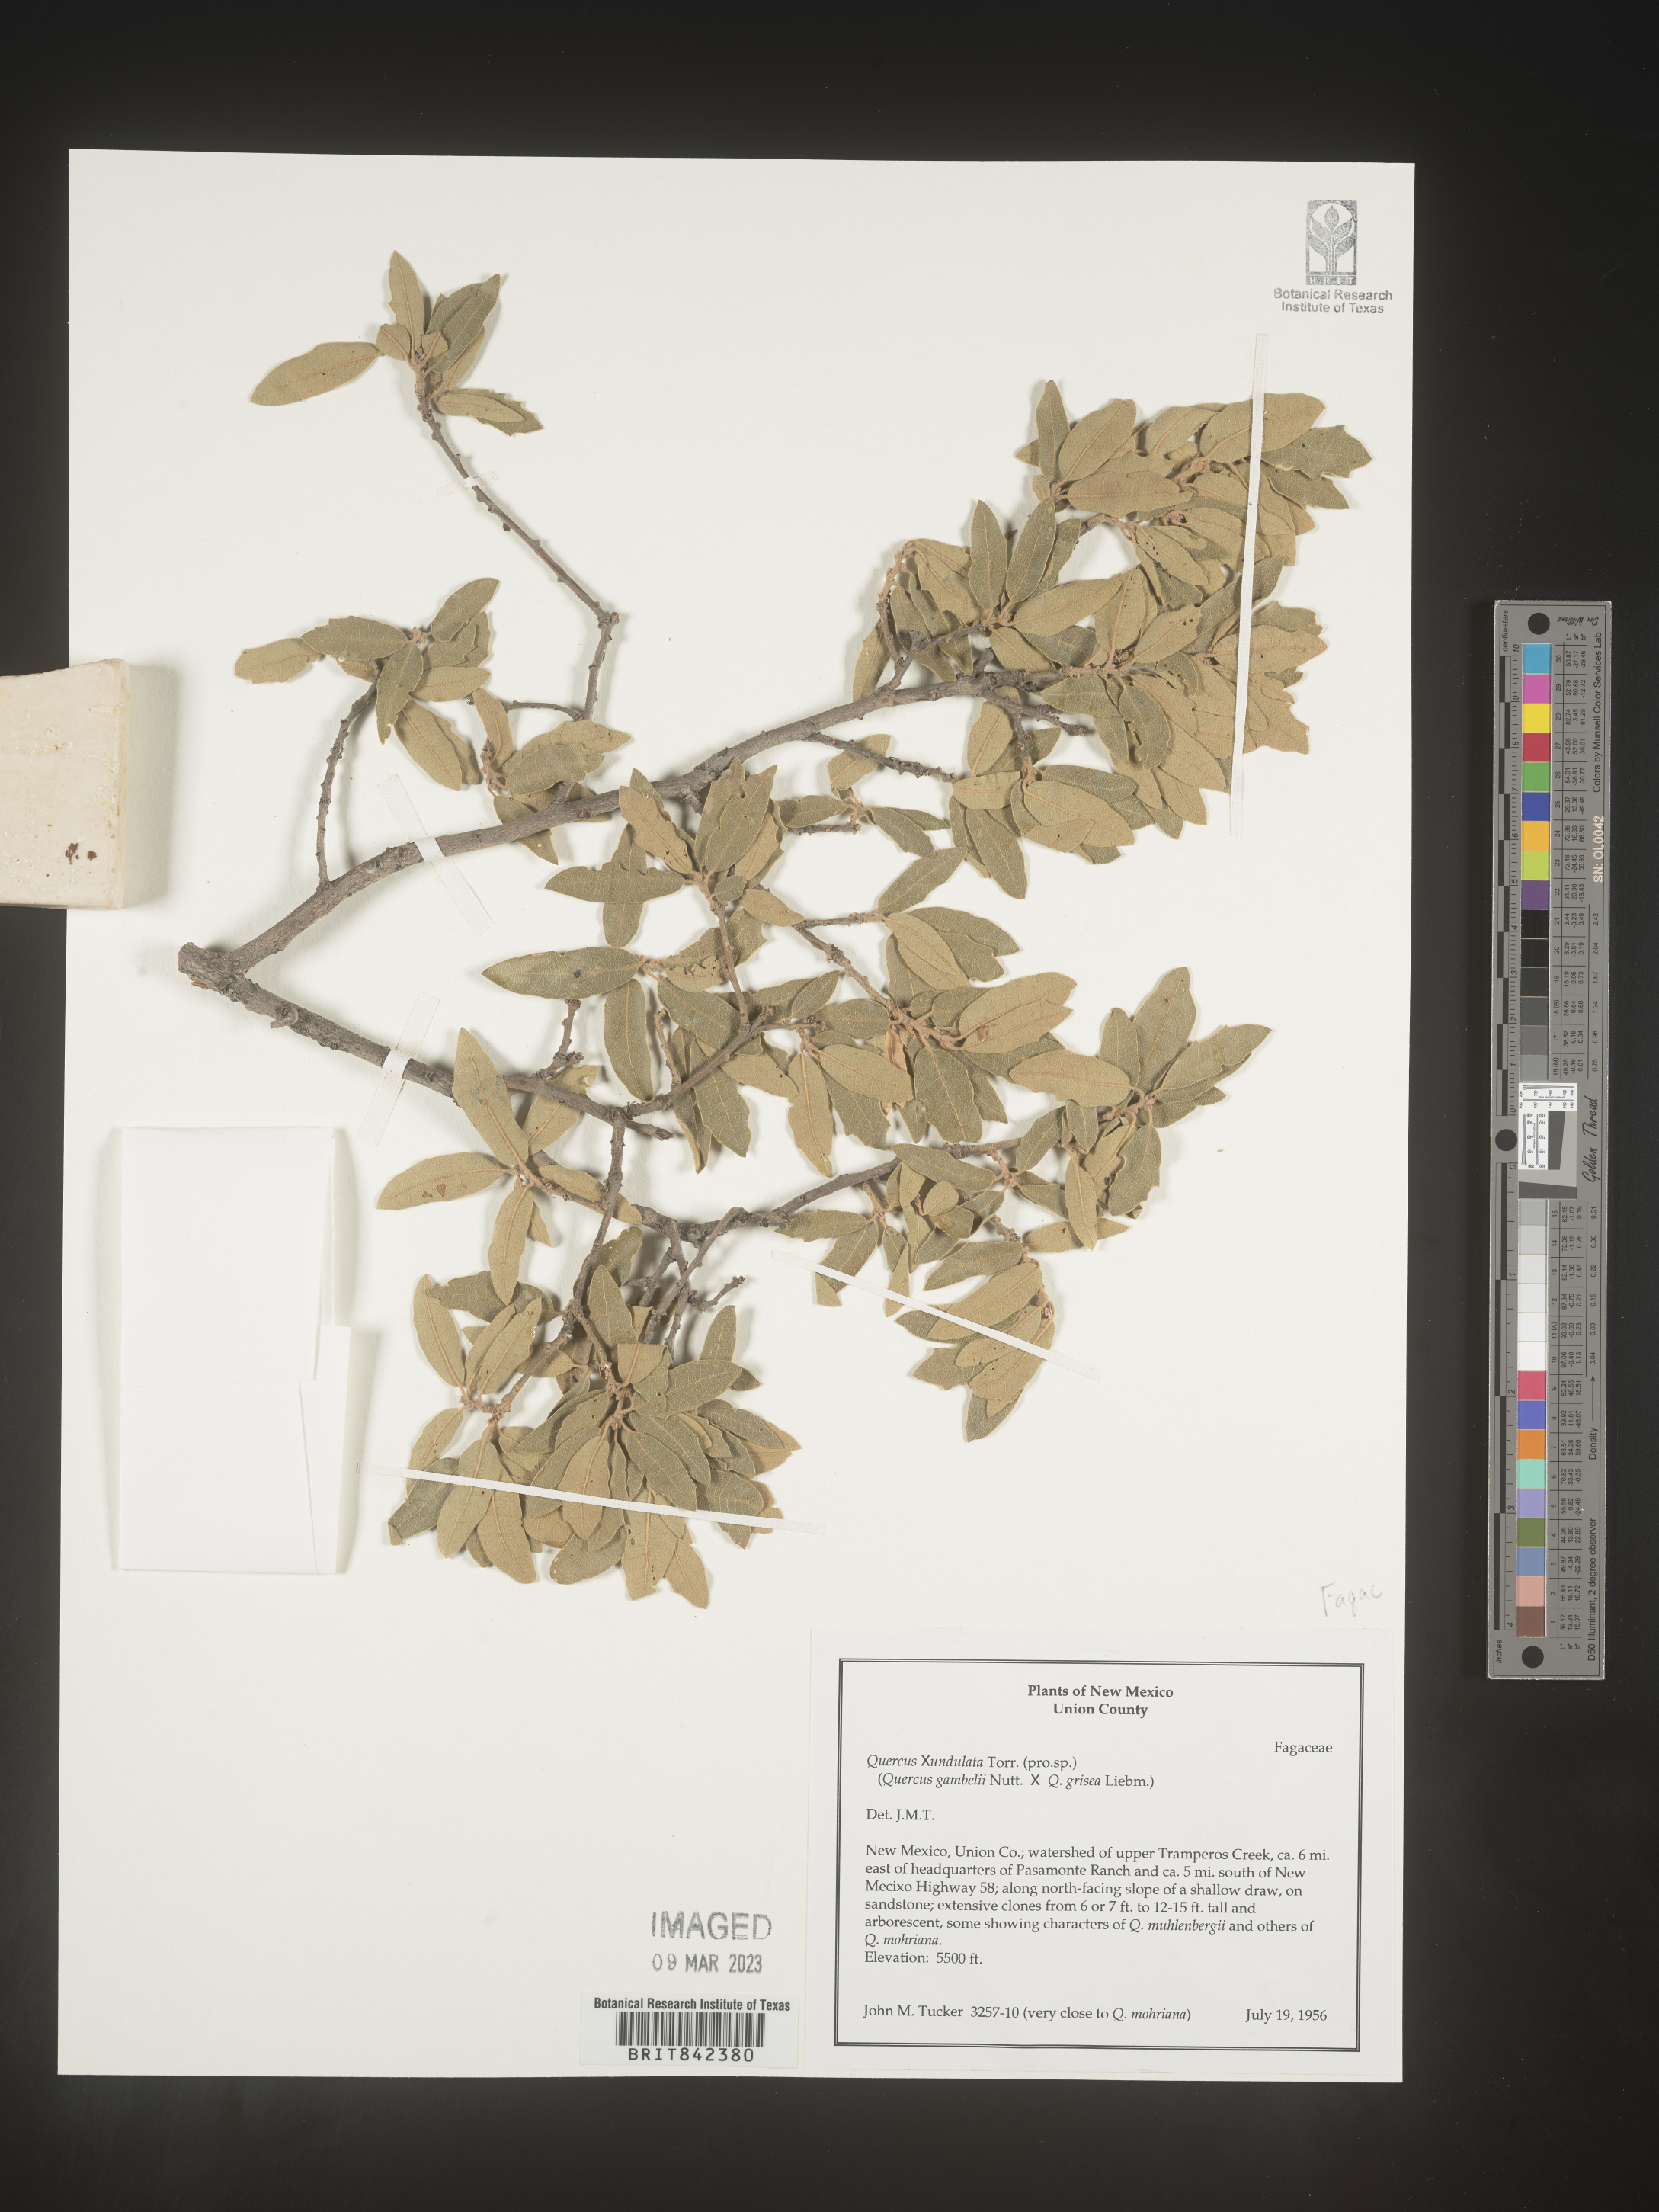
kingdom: Plantae
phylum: Tracheophyta
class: Magnoliopsida
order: Fagales
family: Fagaceae
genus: Quercus
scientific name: Quercus undulata
